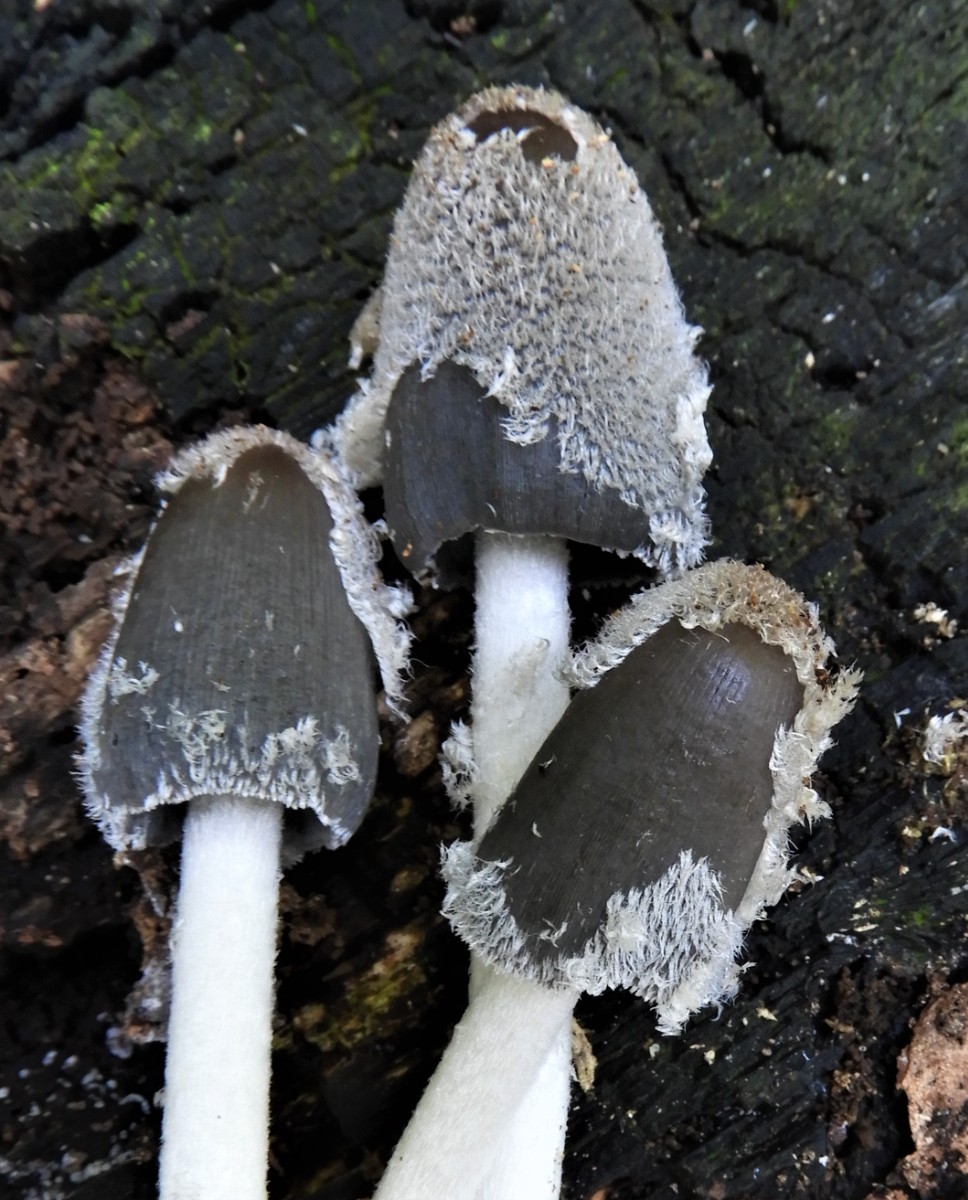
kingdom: Fungi
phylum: Basidiomycota
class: Agaricomycetes
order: Agaricales
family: Psathyrellaceae
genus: Coprinopsis
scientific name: Coprinopsis lagopus
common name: dunstokket blækhat
